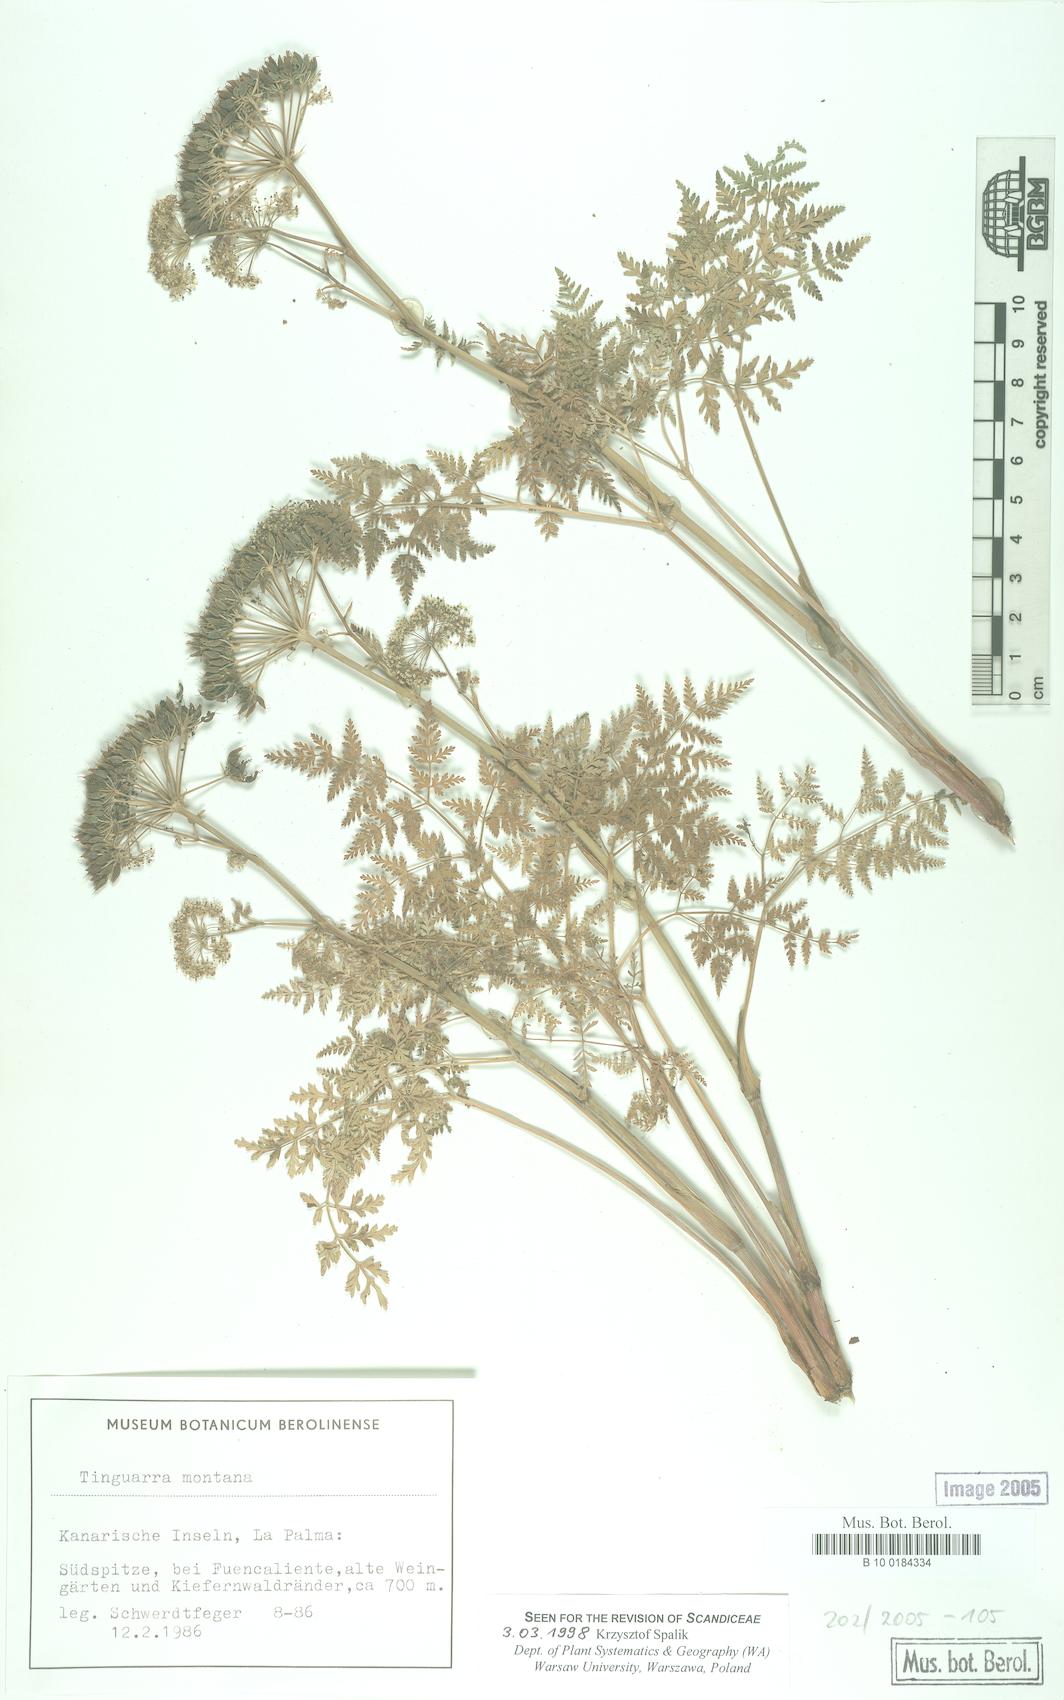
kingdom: Plantae
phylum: Tracheophyta
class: Magnoliopsida
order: Apiales
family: Apiaceae
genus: Athamanta
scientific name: Athamanta montana
